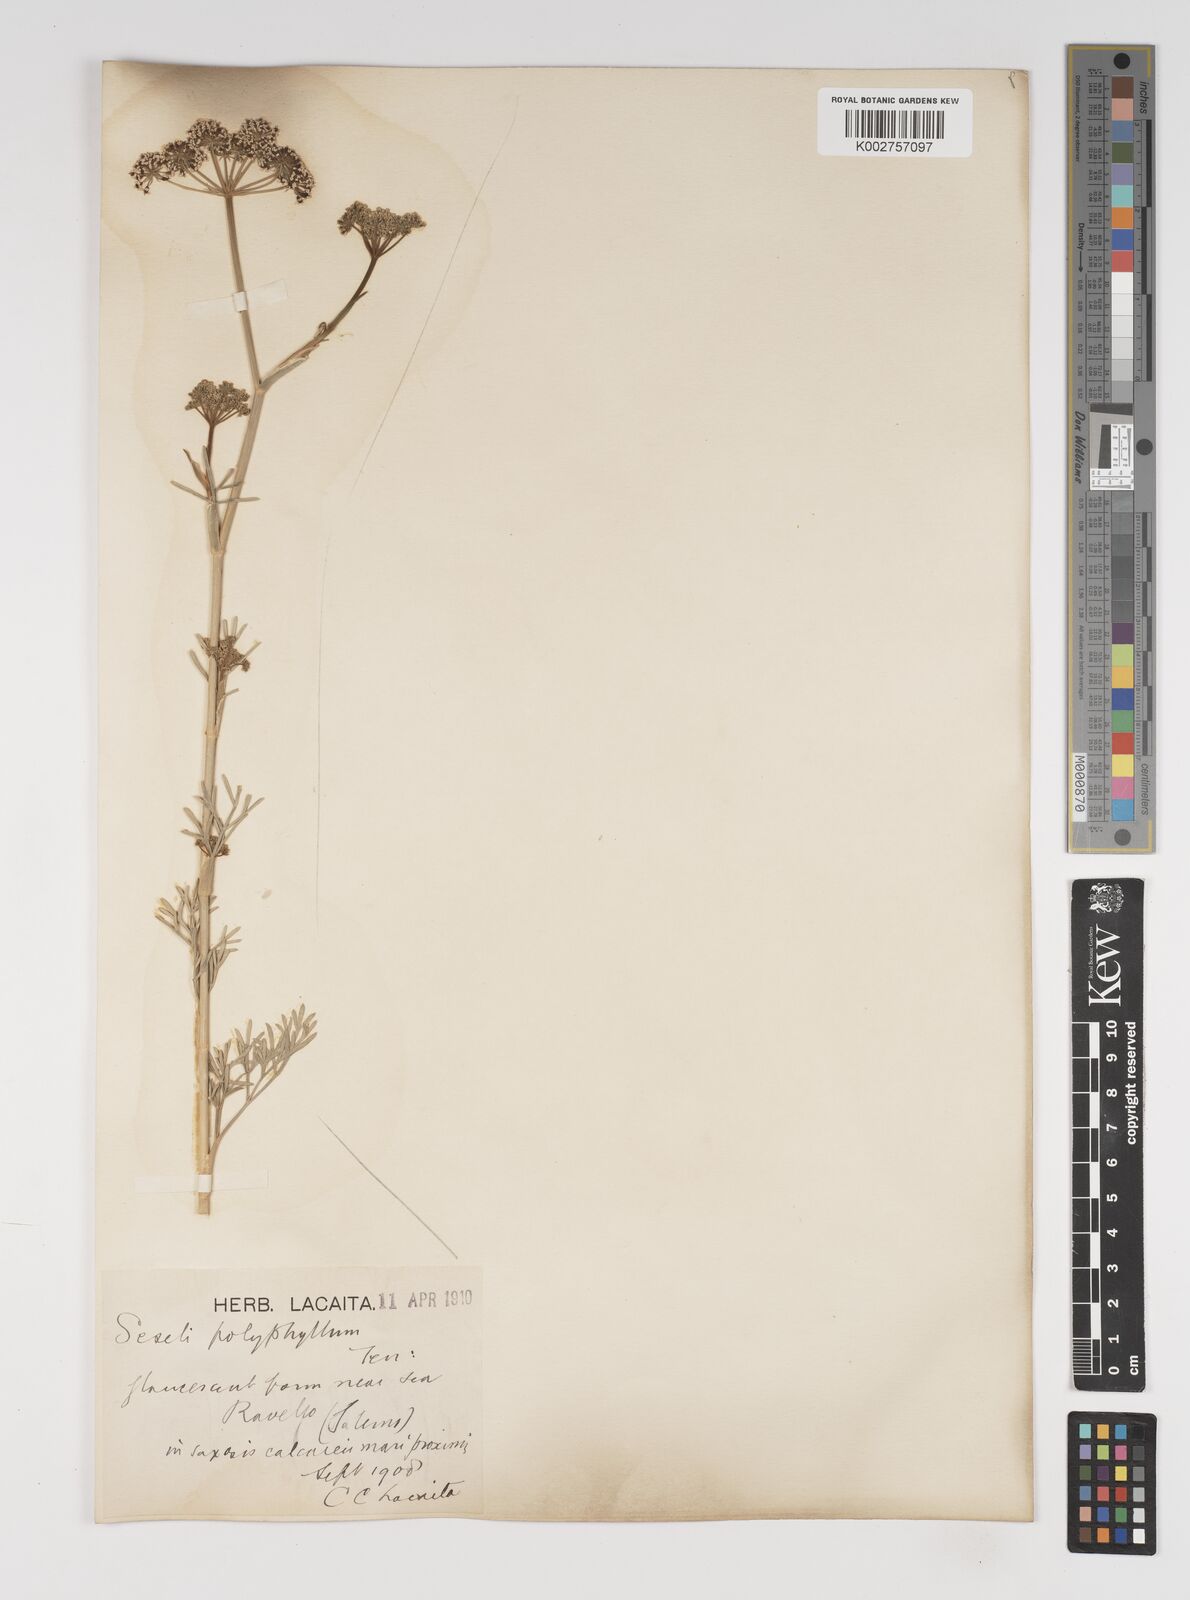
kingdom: Plantae
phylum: Tracheophyta
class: Magnoliopsida
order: Apiales
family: Apiaceae
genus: Seseli
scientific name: Seseli montanum
